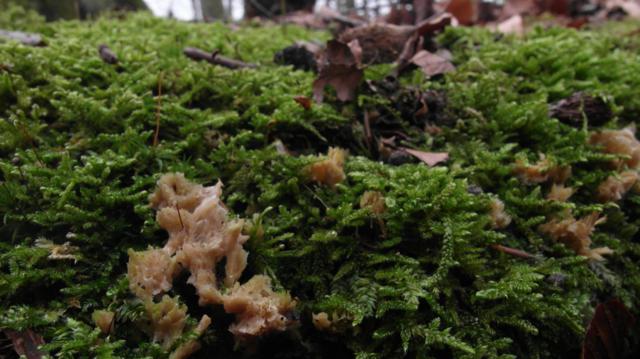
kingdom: Fungi
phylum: Basidiomycota
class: Agaricomycetes
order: Hymenochaetales
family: Rickenellaceae
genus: Cotylidia
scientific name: Cotylidia pannosa
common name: vifte-navlesvamp
